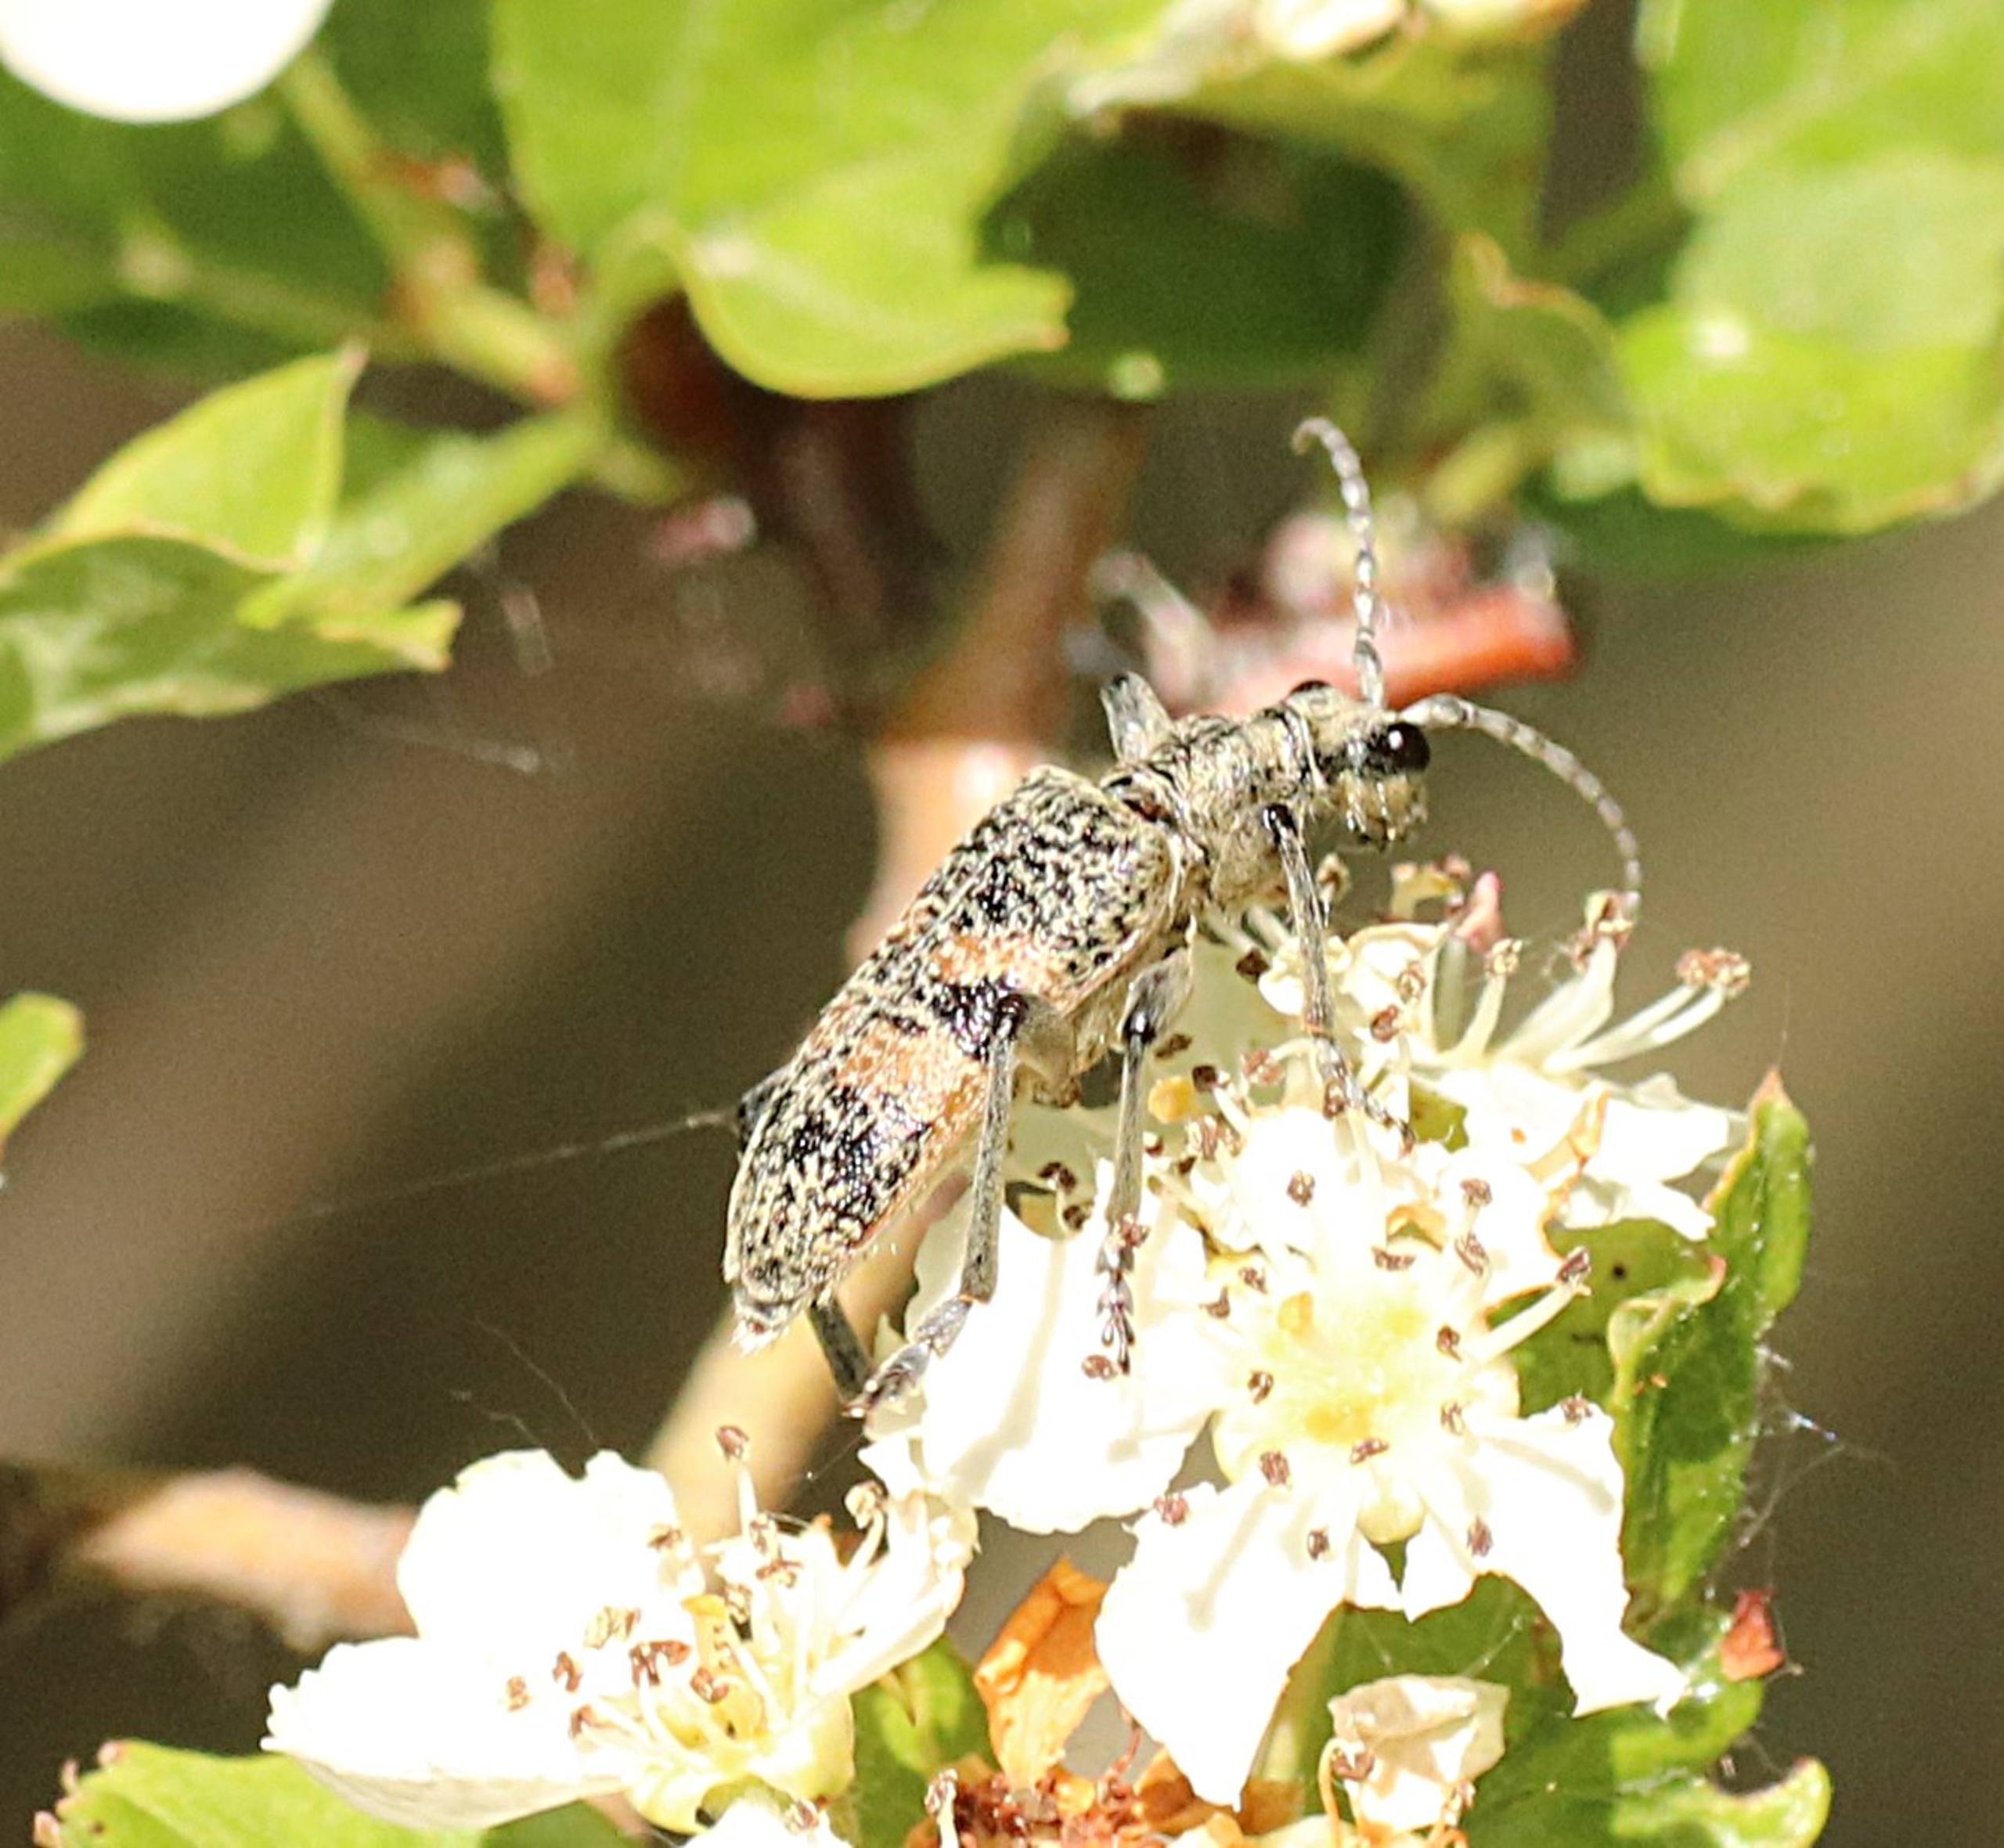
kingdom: Animalia
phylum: Arthropoda
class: Insecta
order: Coleoptera
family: Cerambycidae
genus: Rhagium
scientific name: Rhagium mordax
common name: Blankplettet tandbuk
